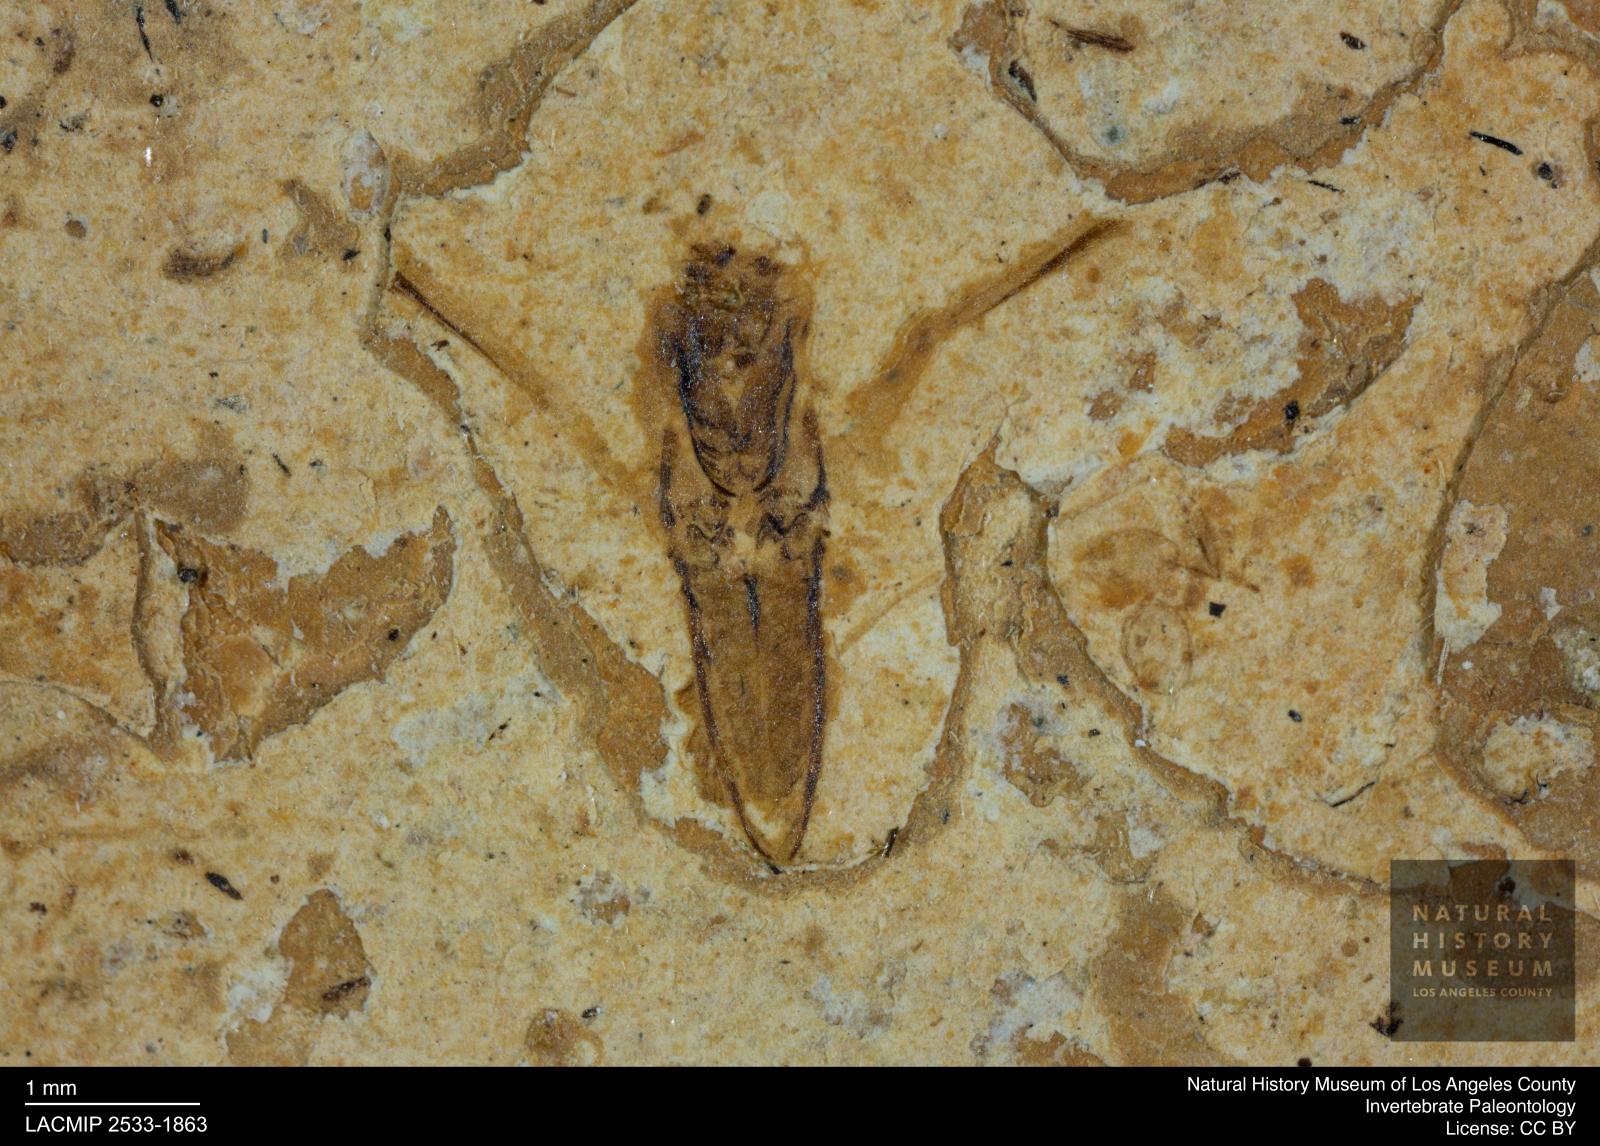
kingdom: Animalia
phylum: Arthropoda
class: Insecta
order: Hemiptera
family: Notonectidae
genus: Notonecta
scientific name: Notonecta
